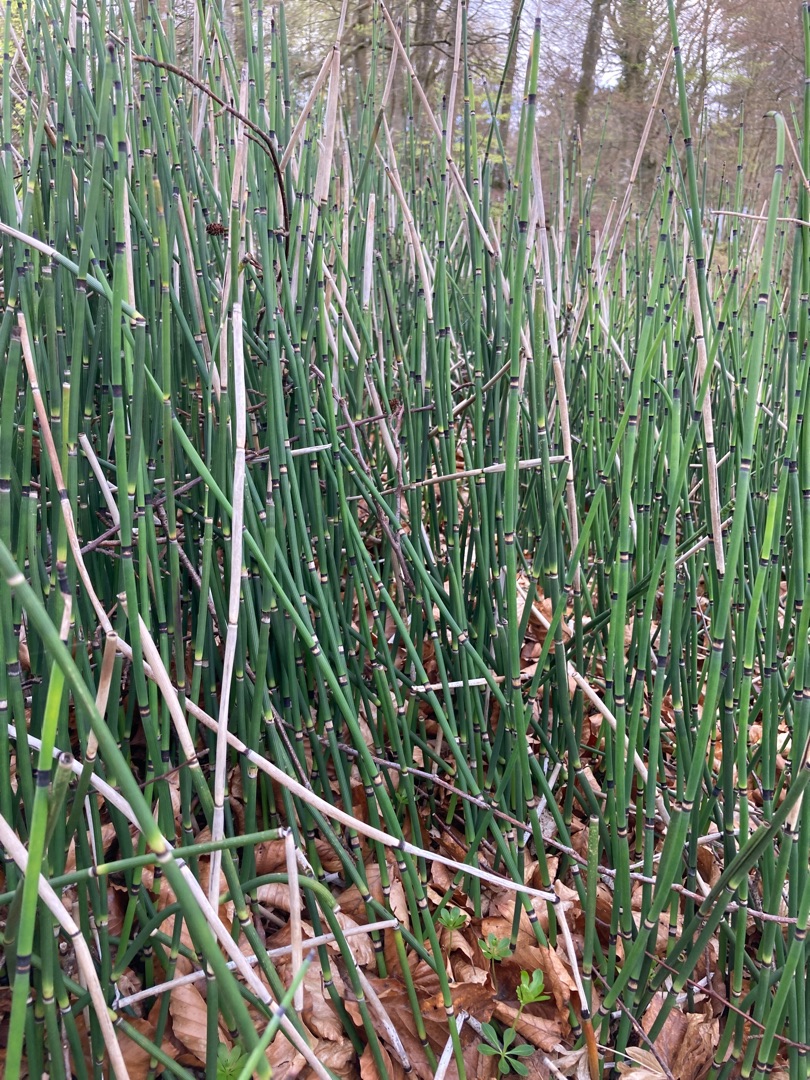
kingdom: Plantae
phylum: Tracheophyta
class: Polypodiopsida
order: Equisetales
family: Equisetaceae
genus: Equisetum
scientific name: Equisetum hyemale
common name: Skavgræs
